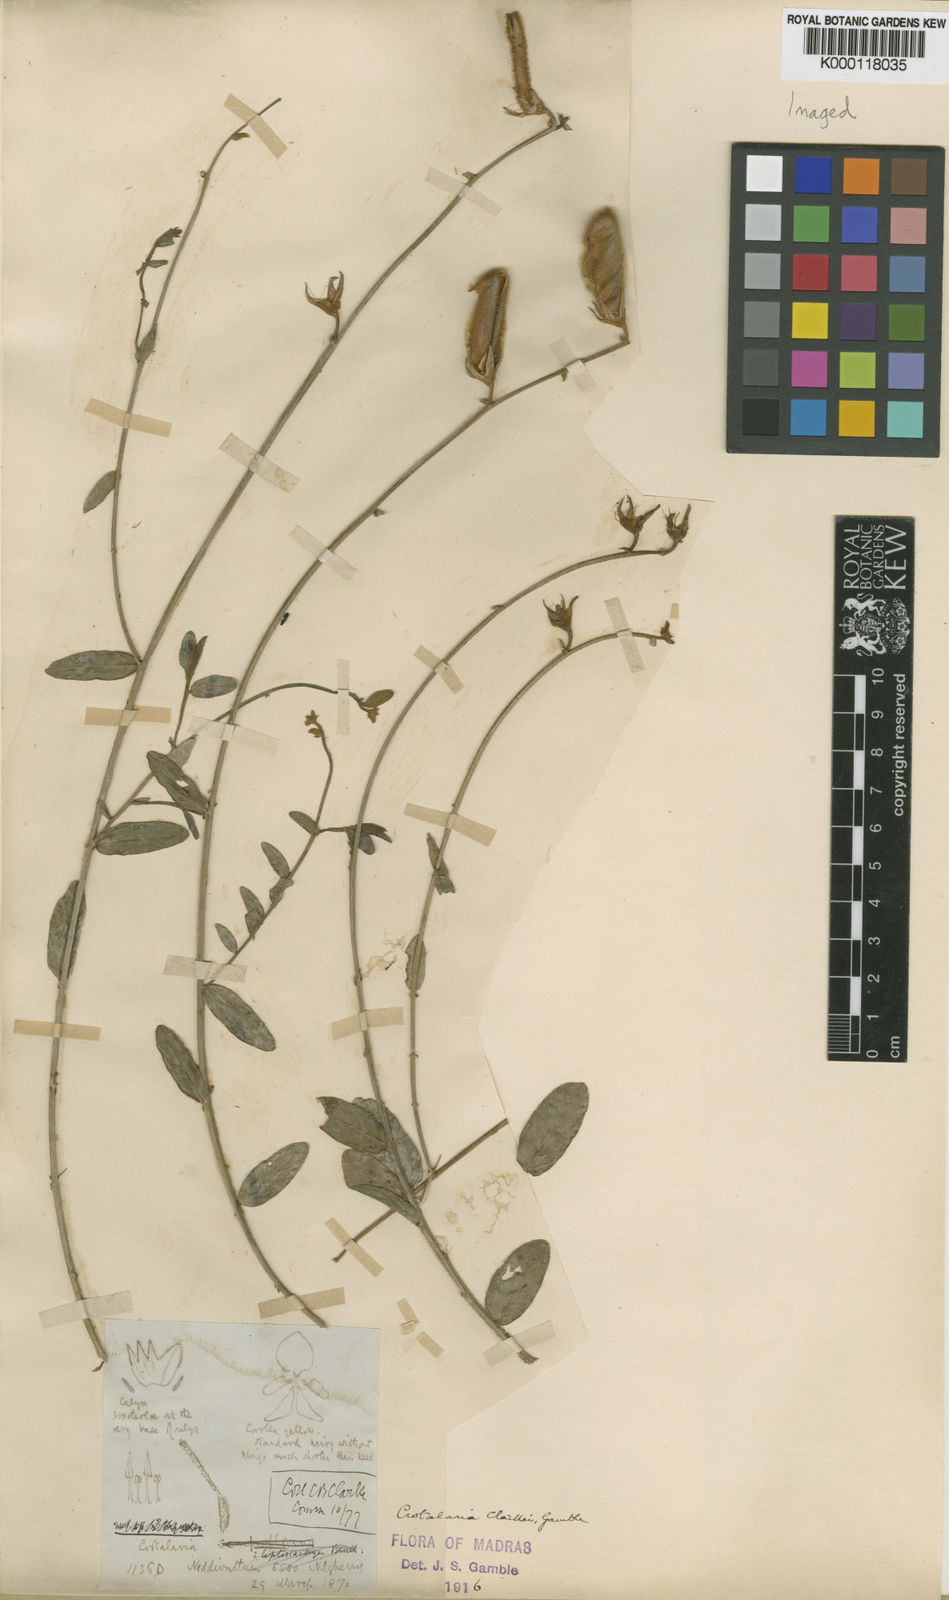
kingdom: Plantae
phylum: Tracheophyta
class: Magnoliopsida
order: Fabales
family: Fabaceae
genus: Crotalaria
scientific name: Crotalaria clarkei
